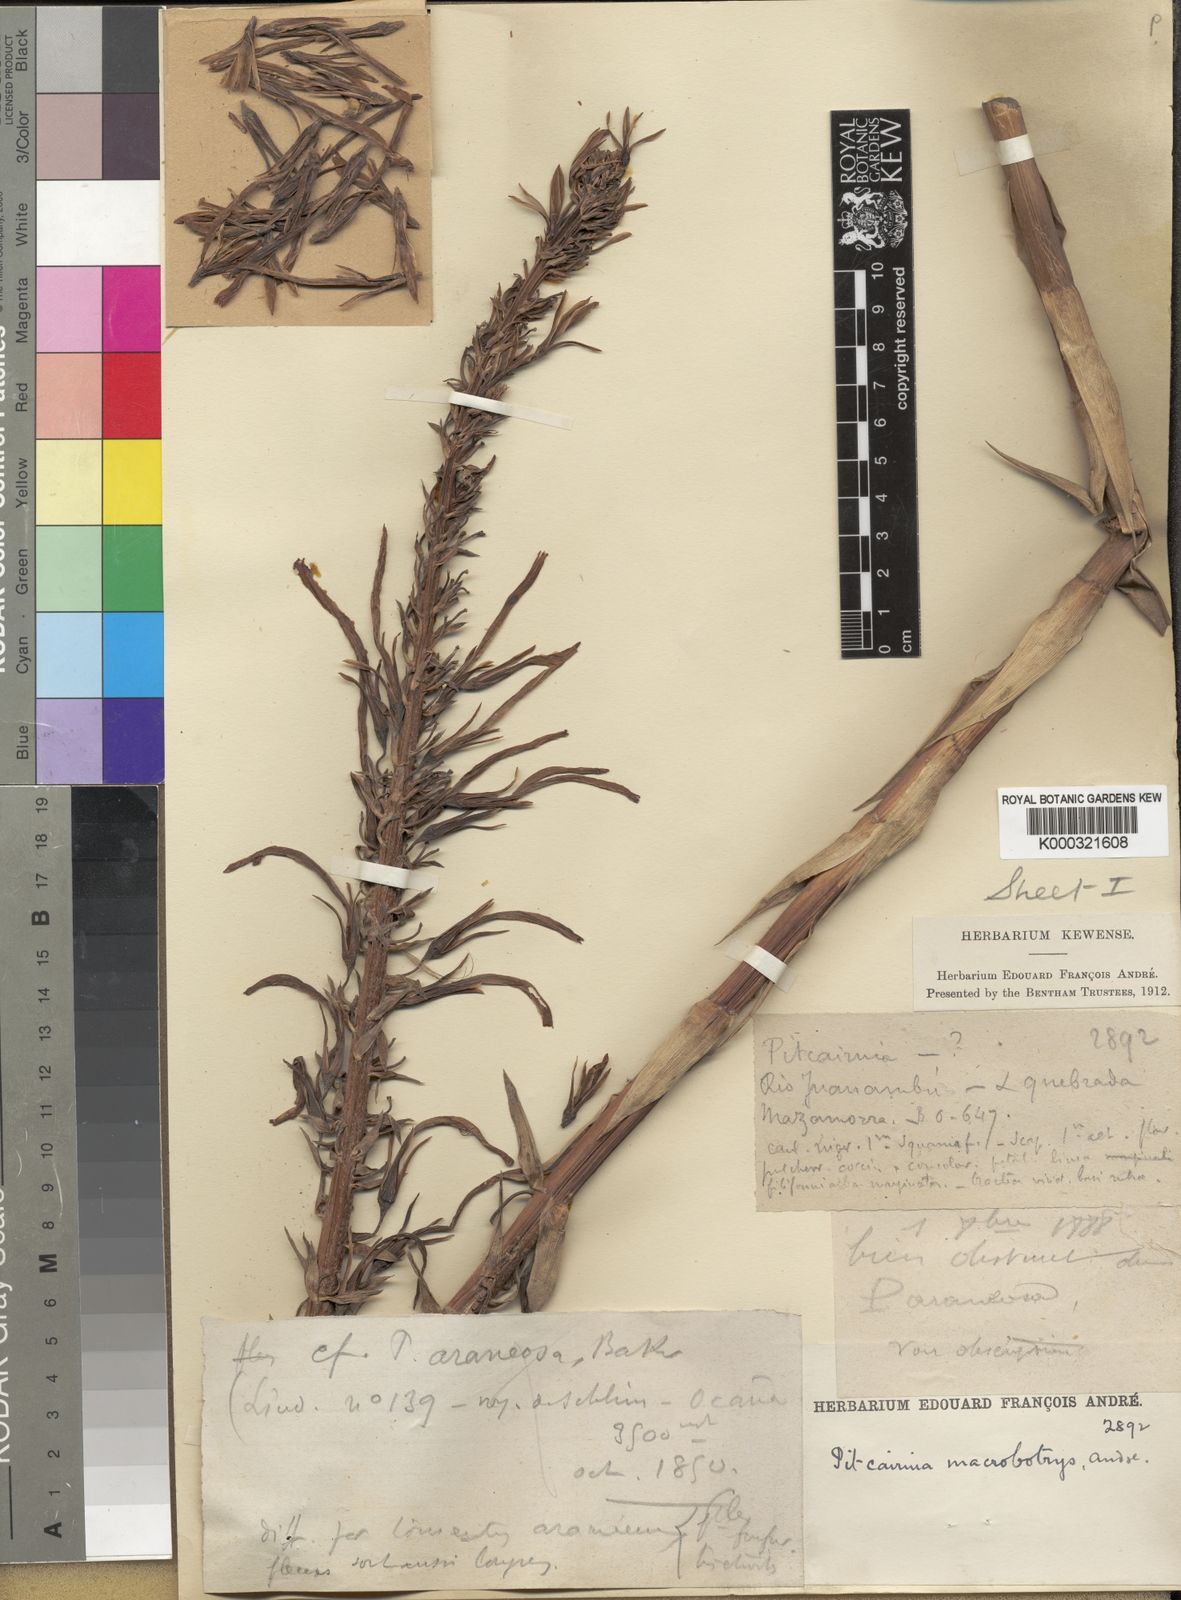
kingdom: Plantae
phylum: Tracheophyta
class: Liliopsida
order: Poales
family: Bromeliaceae
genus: Pitcairnia
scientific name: Pitcairnia
